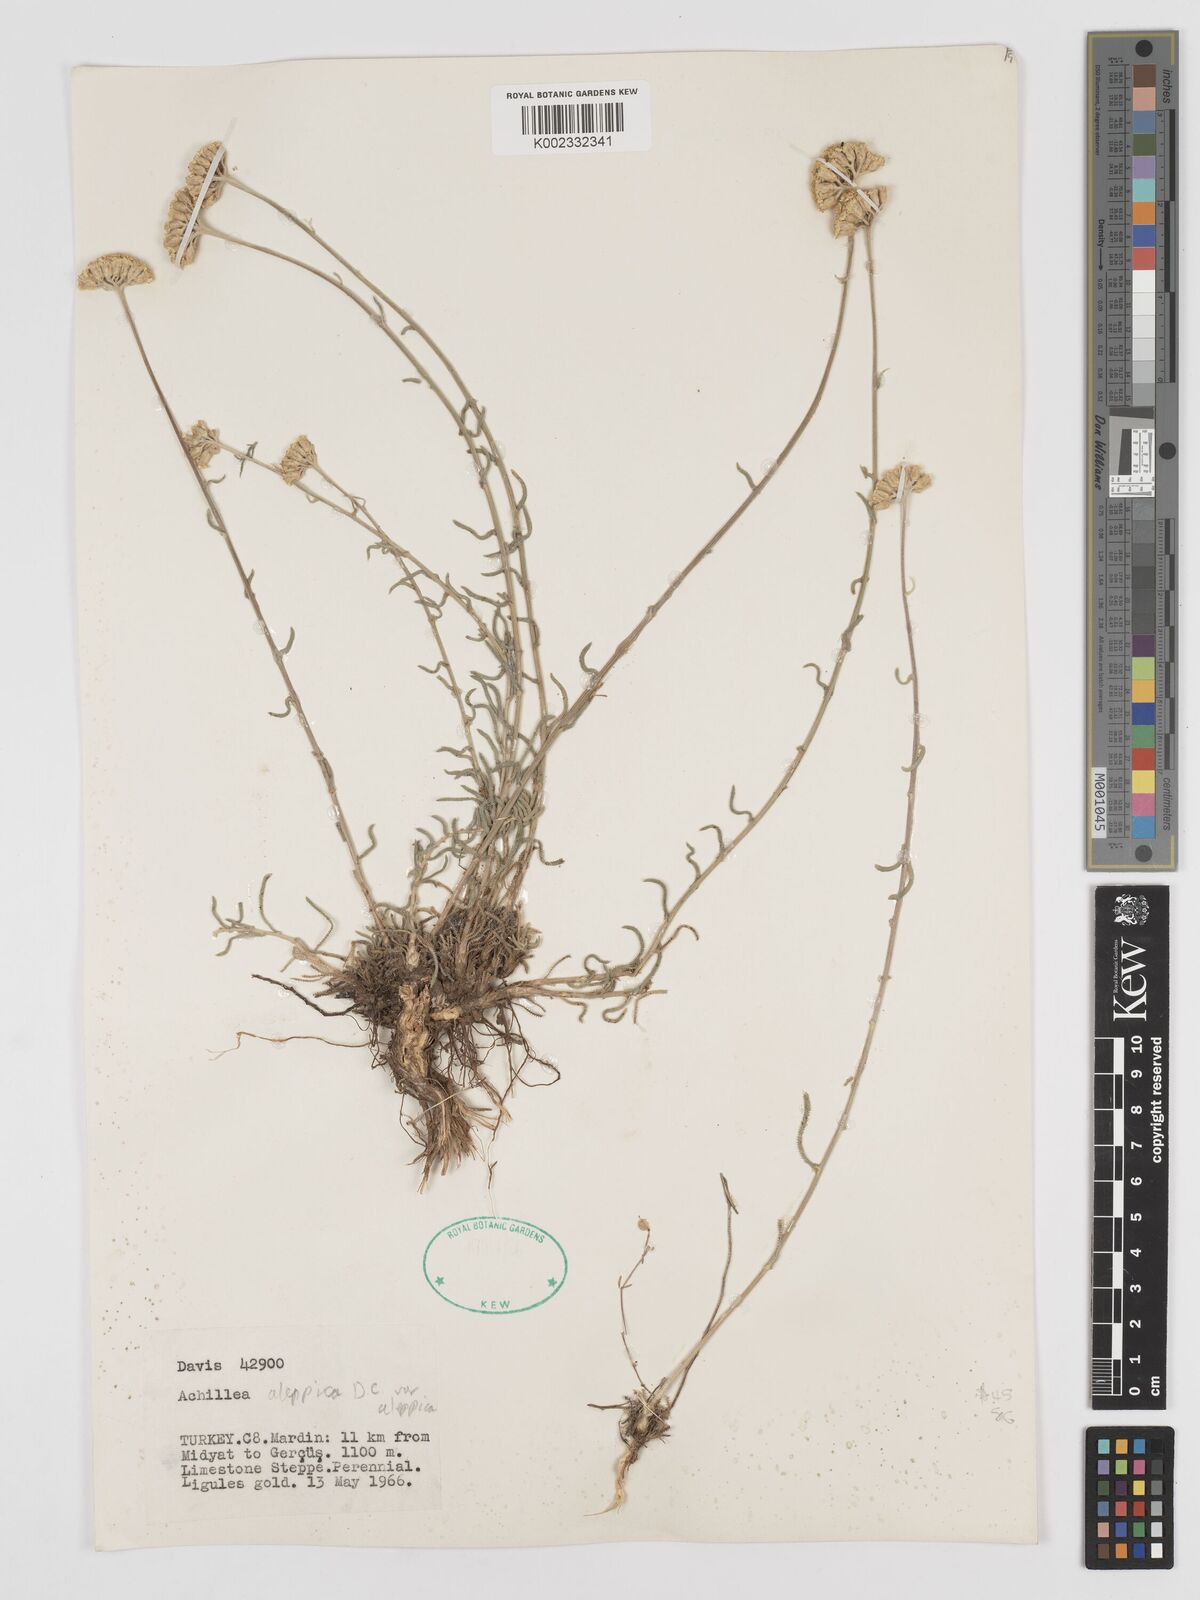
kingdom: Plantae
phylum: Tracheophyta
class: Magnoliopsida
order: Asterales
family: Asteraceae
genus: Achillea
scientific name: Achillea aleppica
